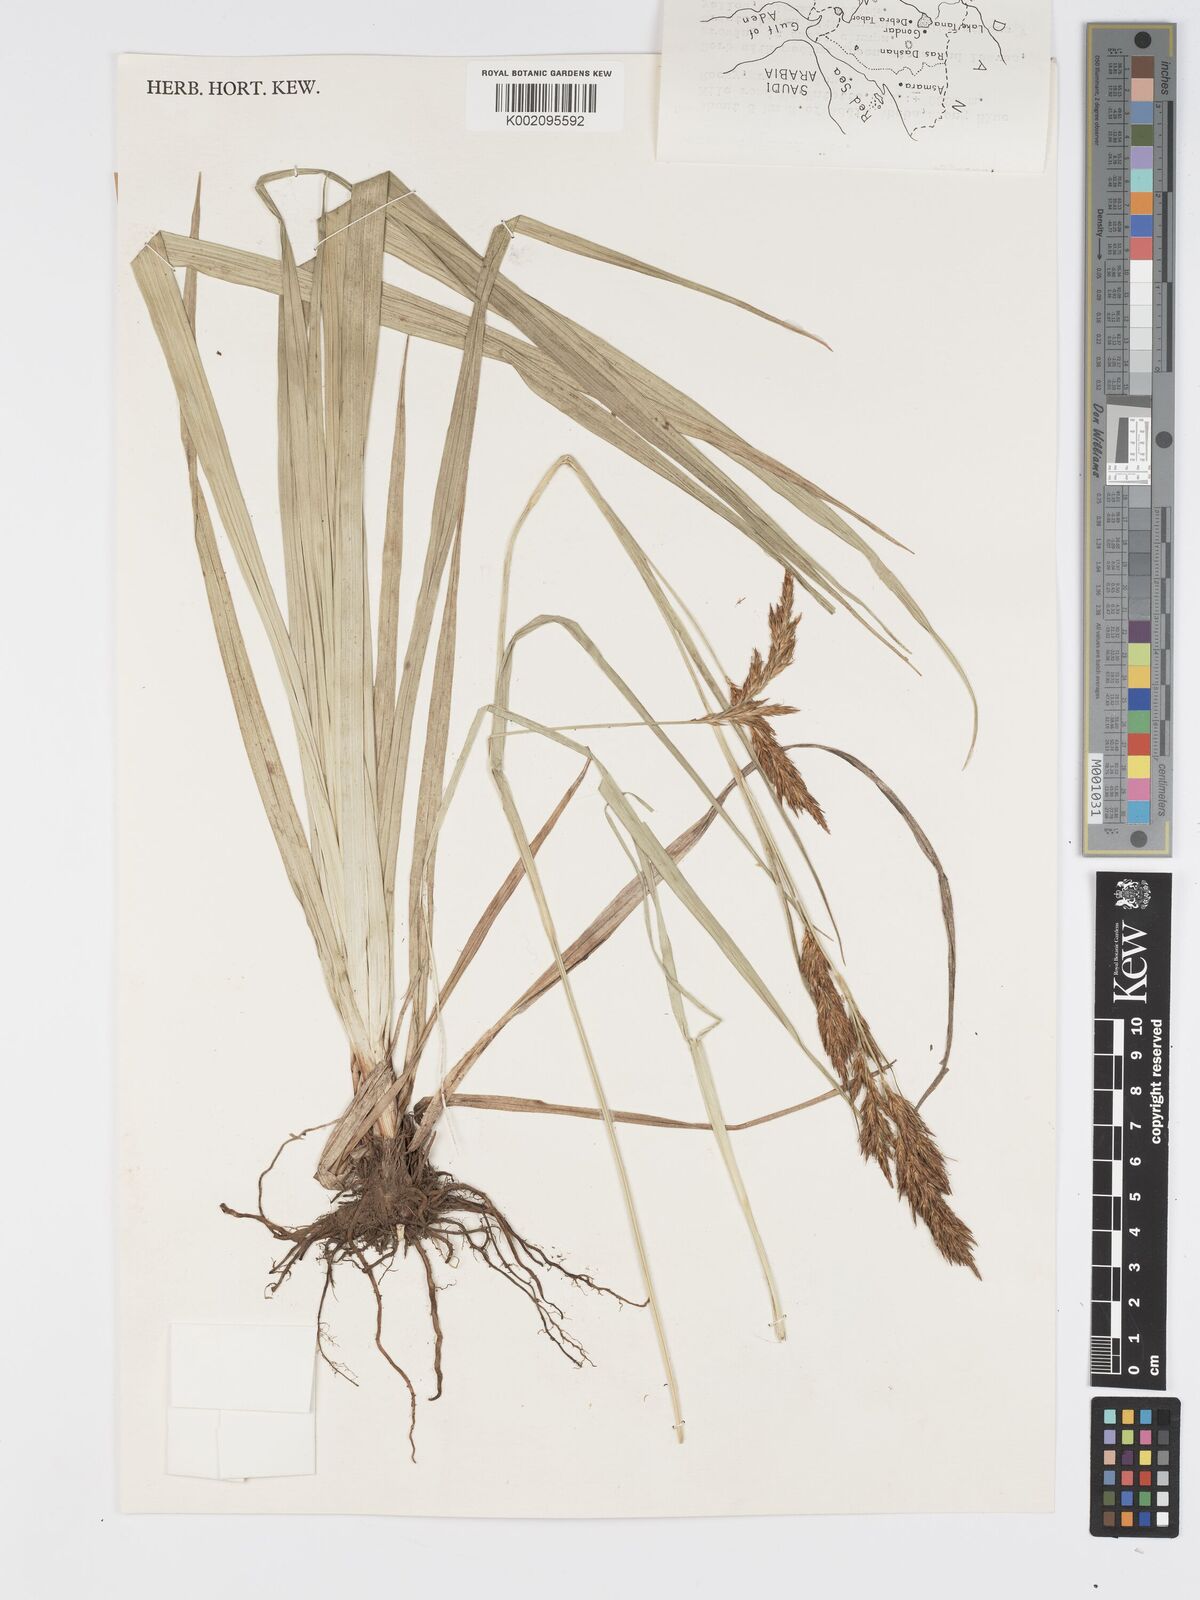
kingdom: Plantae
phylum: Tracheophyta
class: Liliopsida
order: Poales
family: Cyperaceae
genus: Carex
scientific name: Carex steudneri
